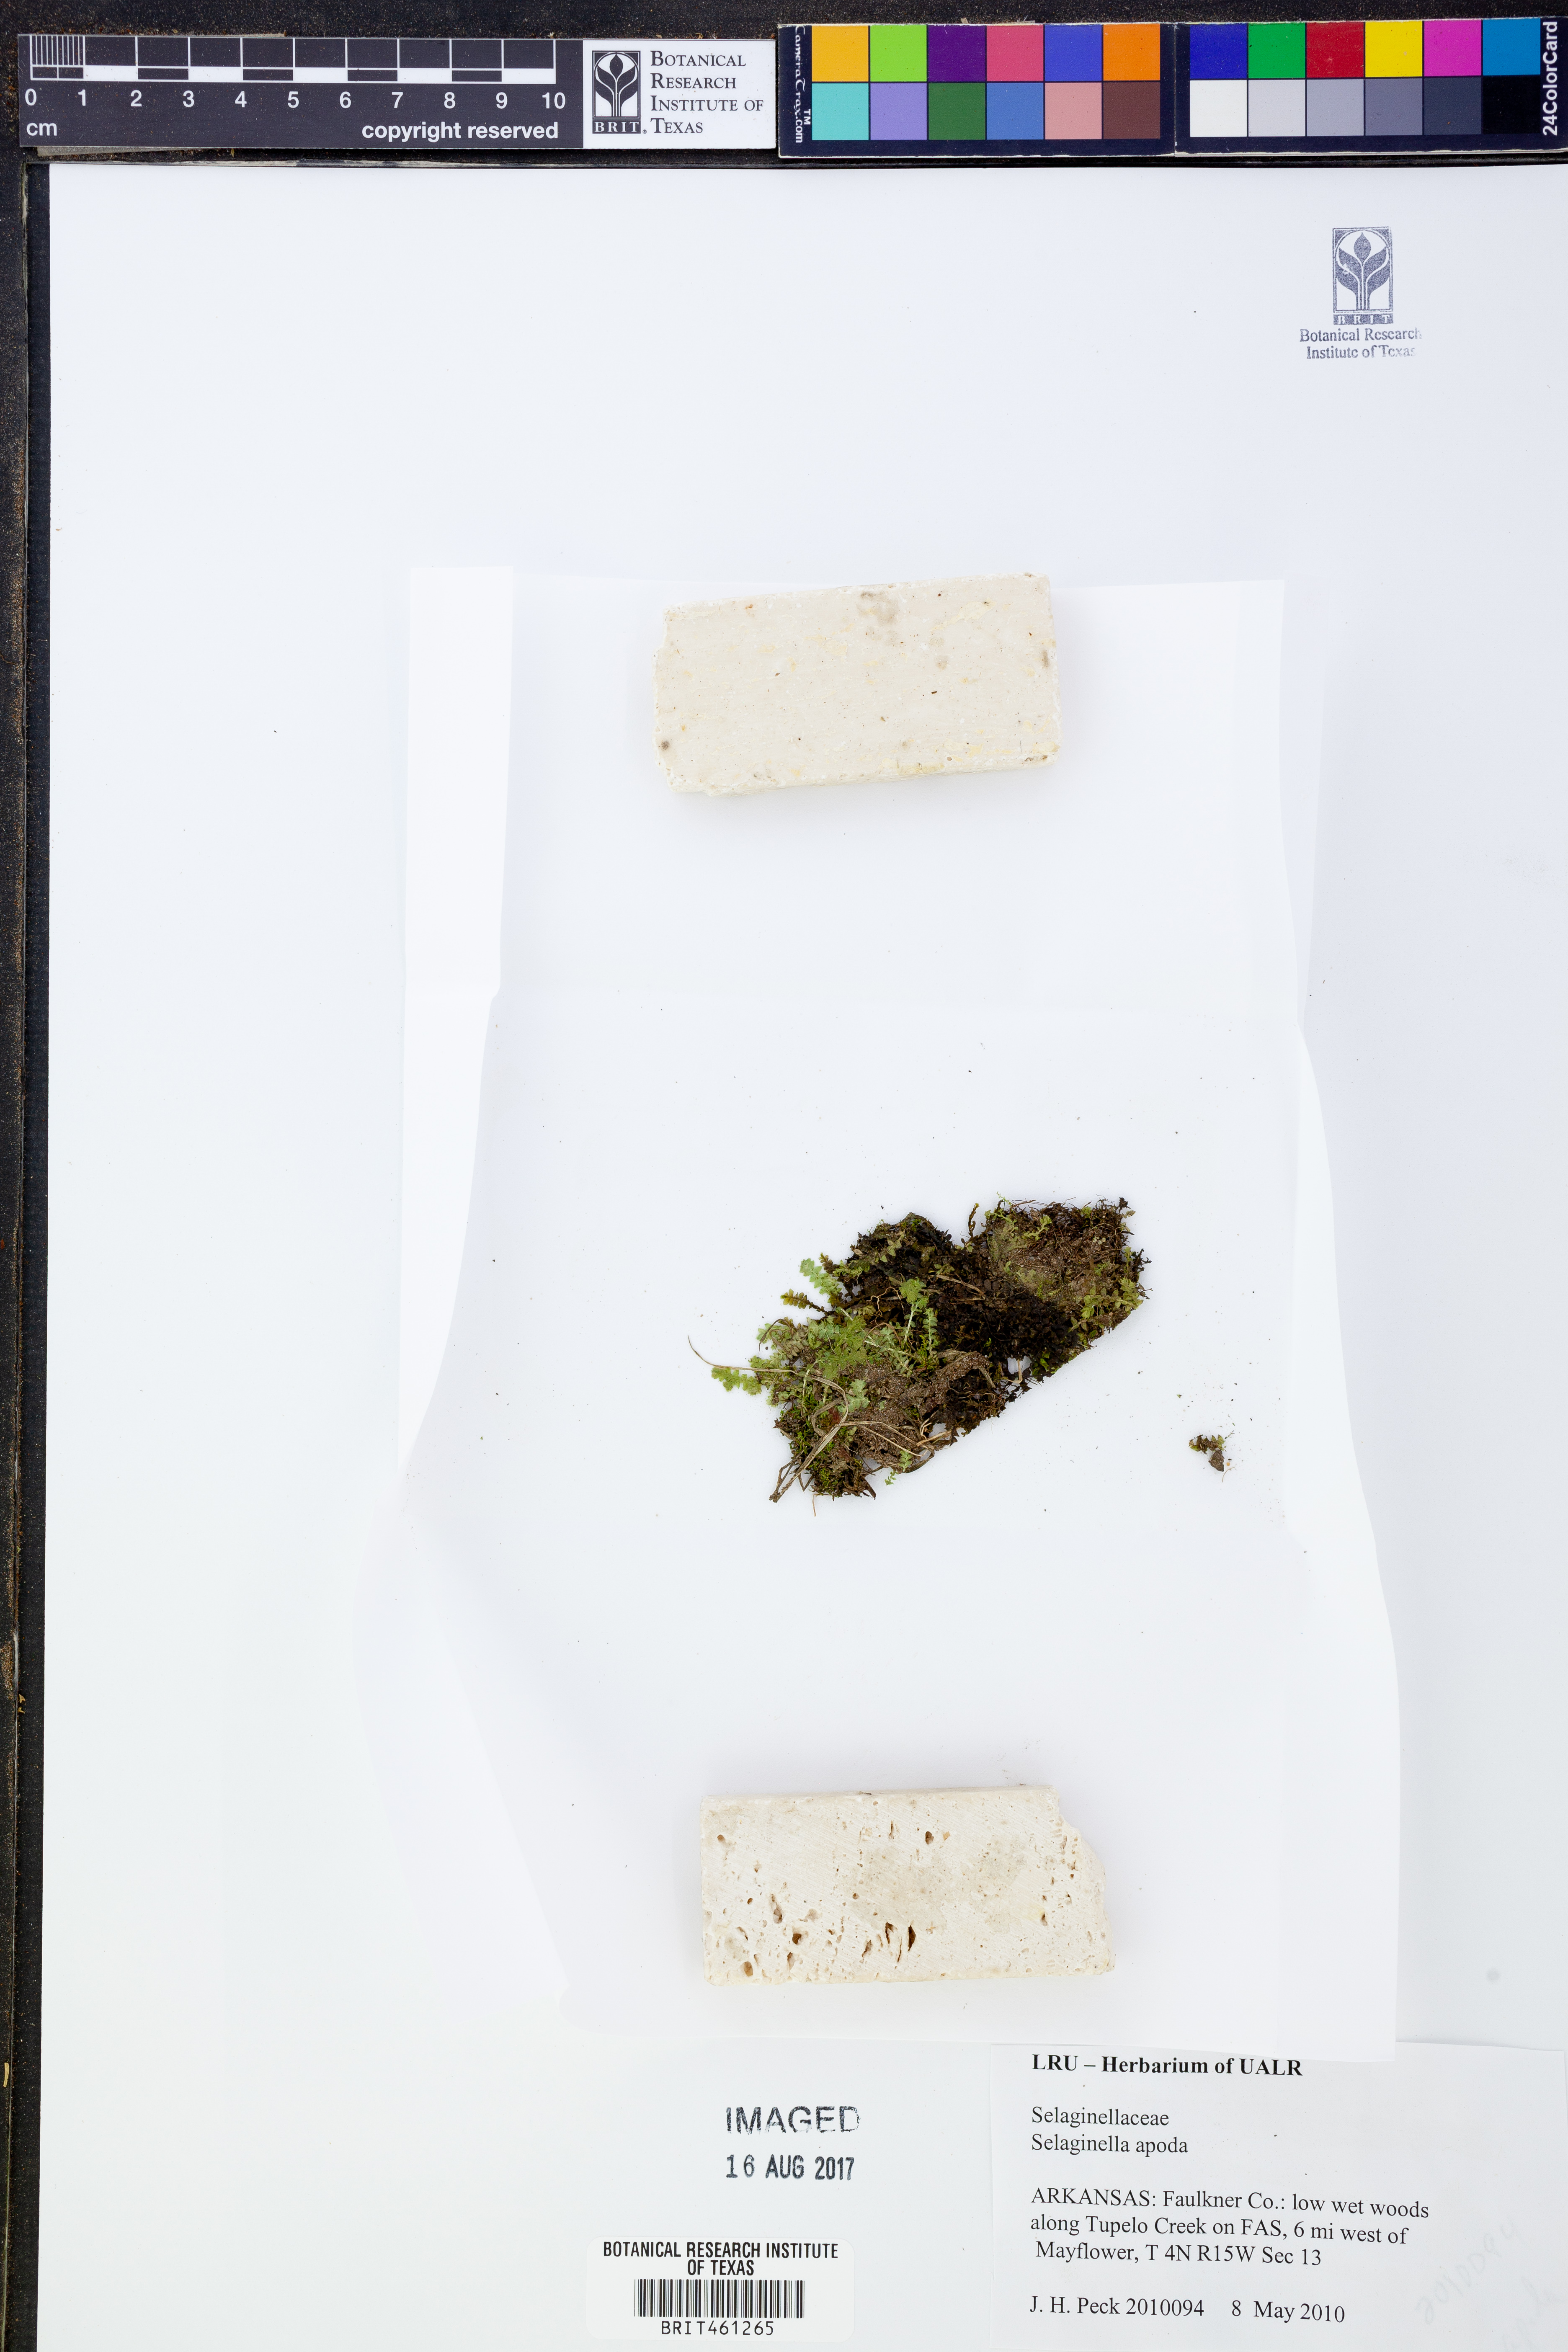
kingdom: Plantae
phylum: Tracheophyta
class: Lycopodiopsida
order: Selaginellales
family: Selaginellaceae
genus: Selaginella
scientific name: Selaginella apoda
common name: Creeping spikemoss
